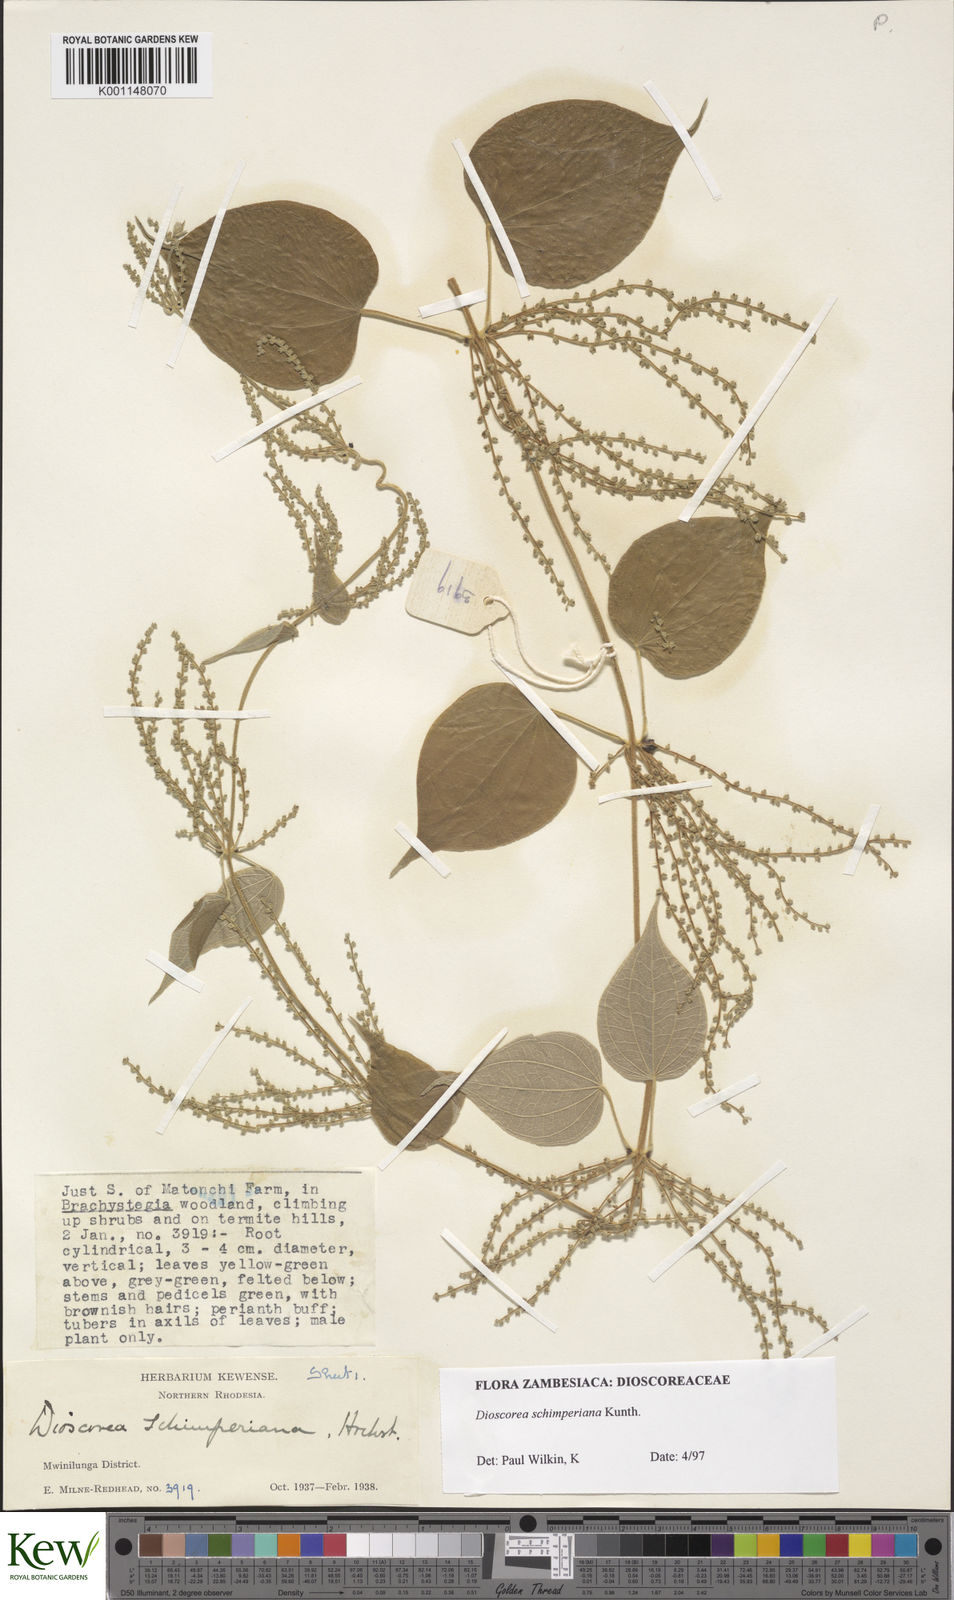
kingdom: Plantae
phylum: Tracheophyta
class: Liliopsida
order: Dioscoreales
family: Dioscoreaceae
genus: Dioscorea
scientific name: Dioscorea schimperiana
